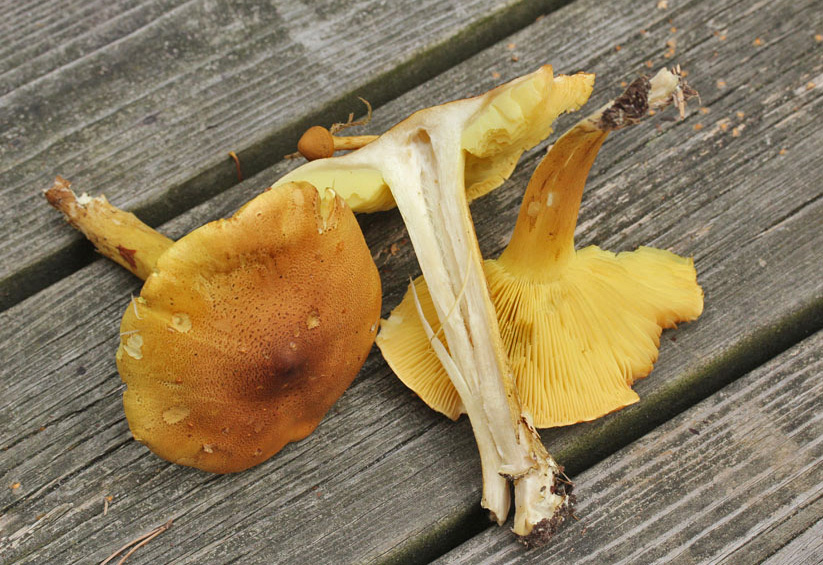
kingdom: Fungi
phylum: Basidiomycota
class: Agaricomycetes
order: Agaricales
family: Tricholomataceae
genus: Tricholoma
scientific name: Tricholoma frondosae
